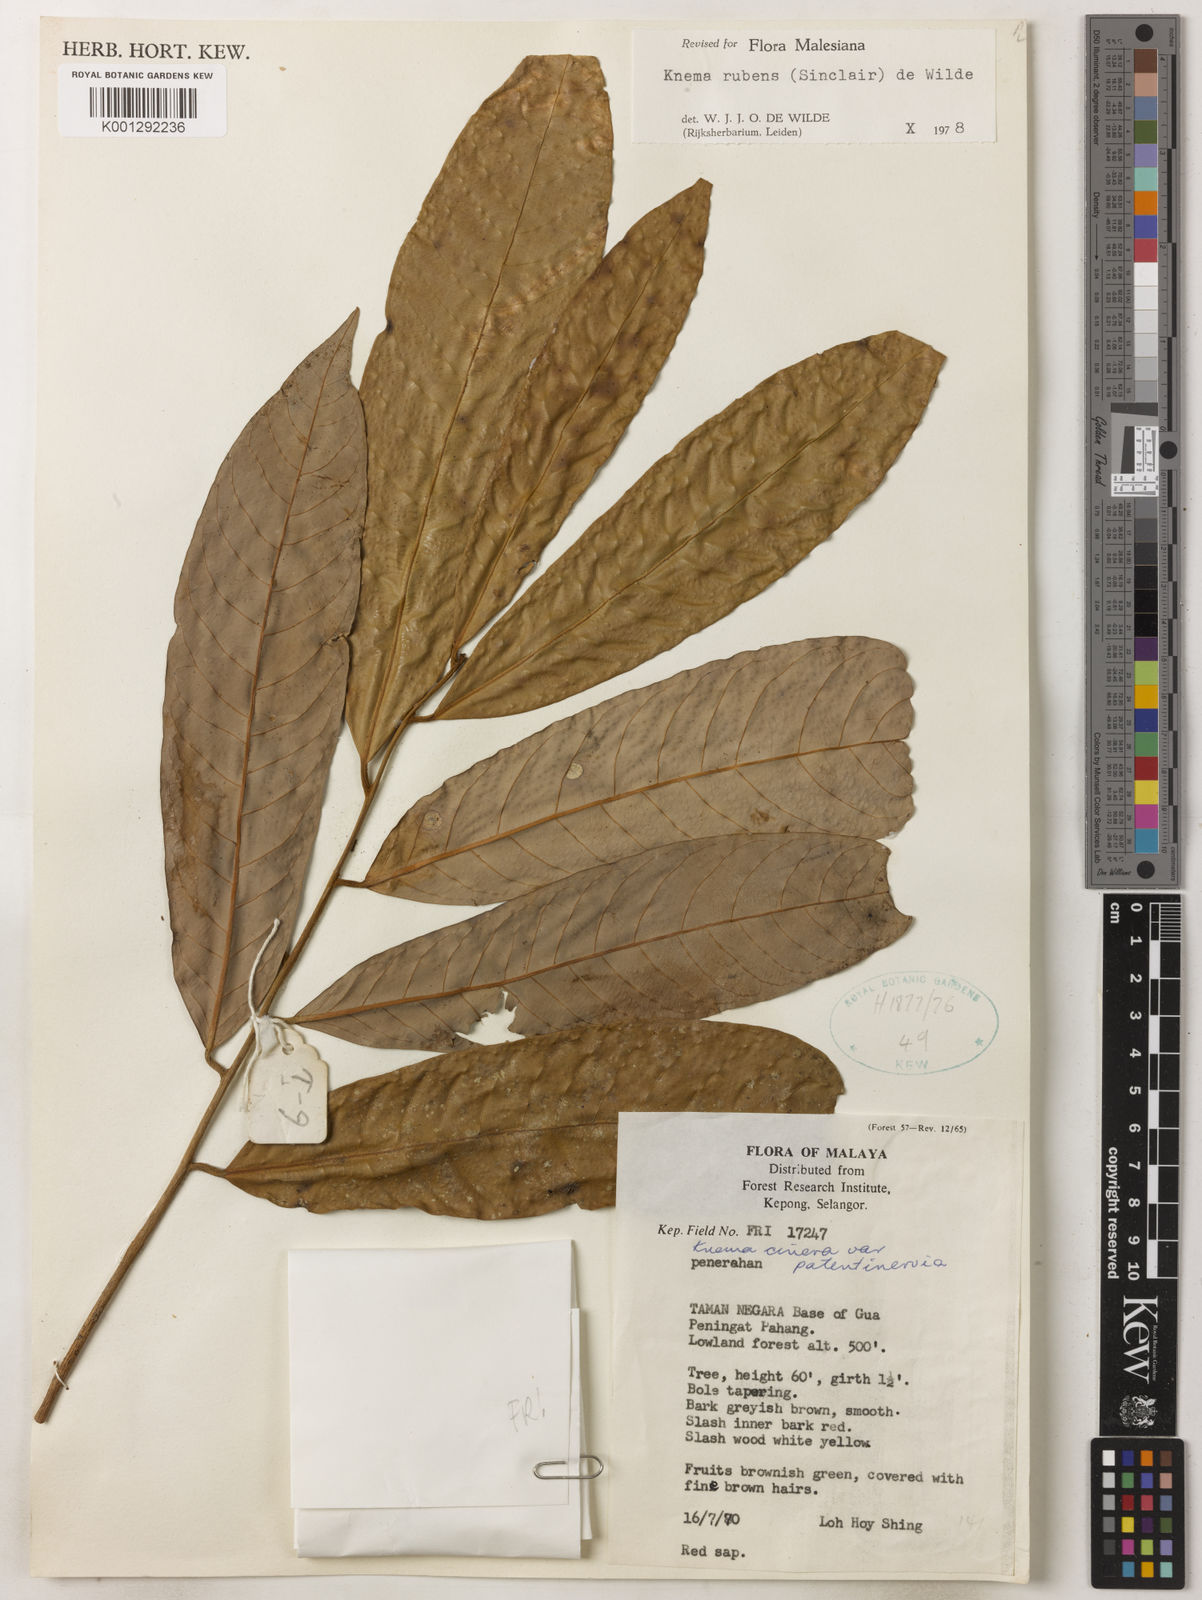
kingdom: Plantae
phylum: Tracheophyta
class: Magnoliopsida
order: Magnoliales
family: Myristicaceae
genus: Knema
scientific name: Knema rubens
